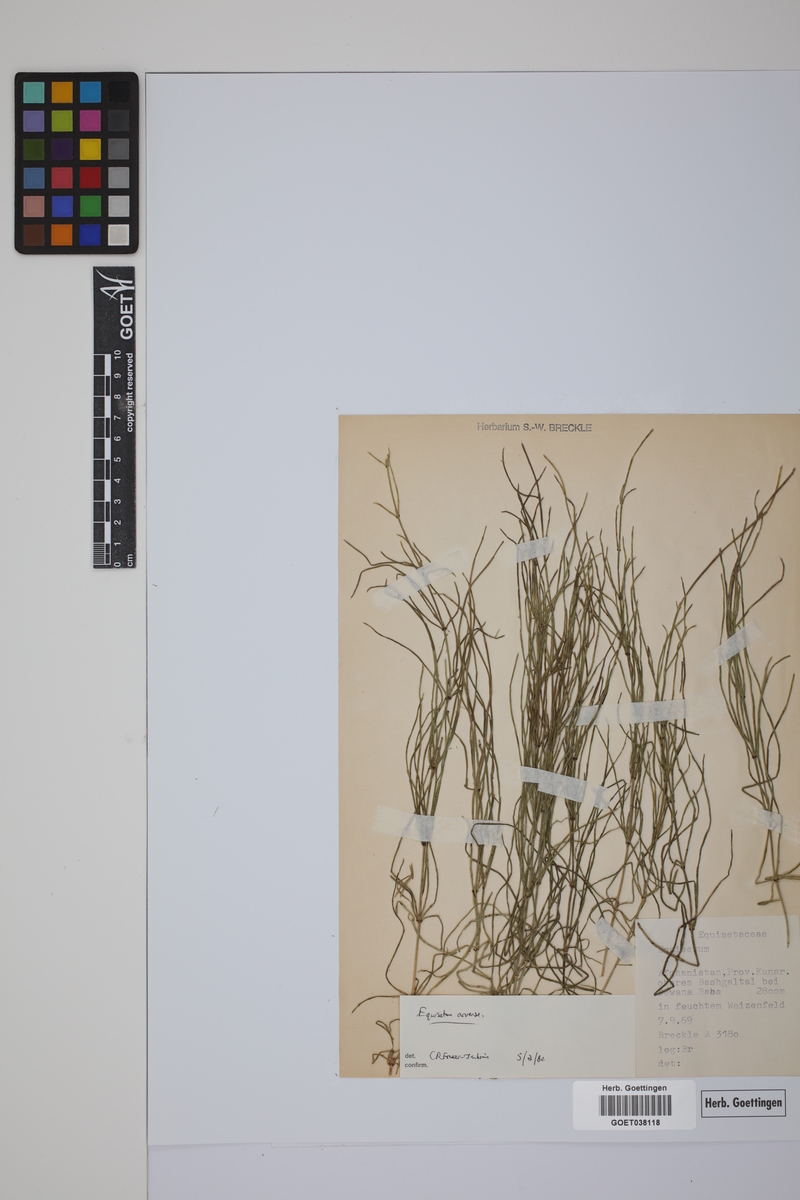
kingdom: Plantae
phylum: Tracheophyta
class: Polypodiopsida
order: Equisetales
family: Equisetaceae
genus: Equisetum
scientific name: Equisetum arvense
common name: Field horsetail
